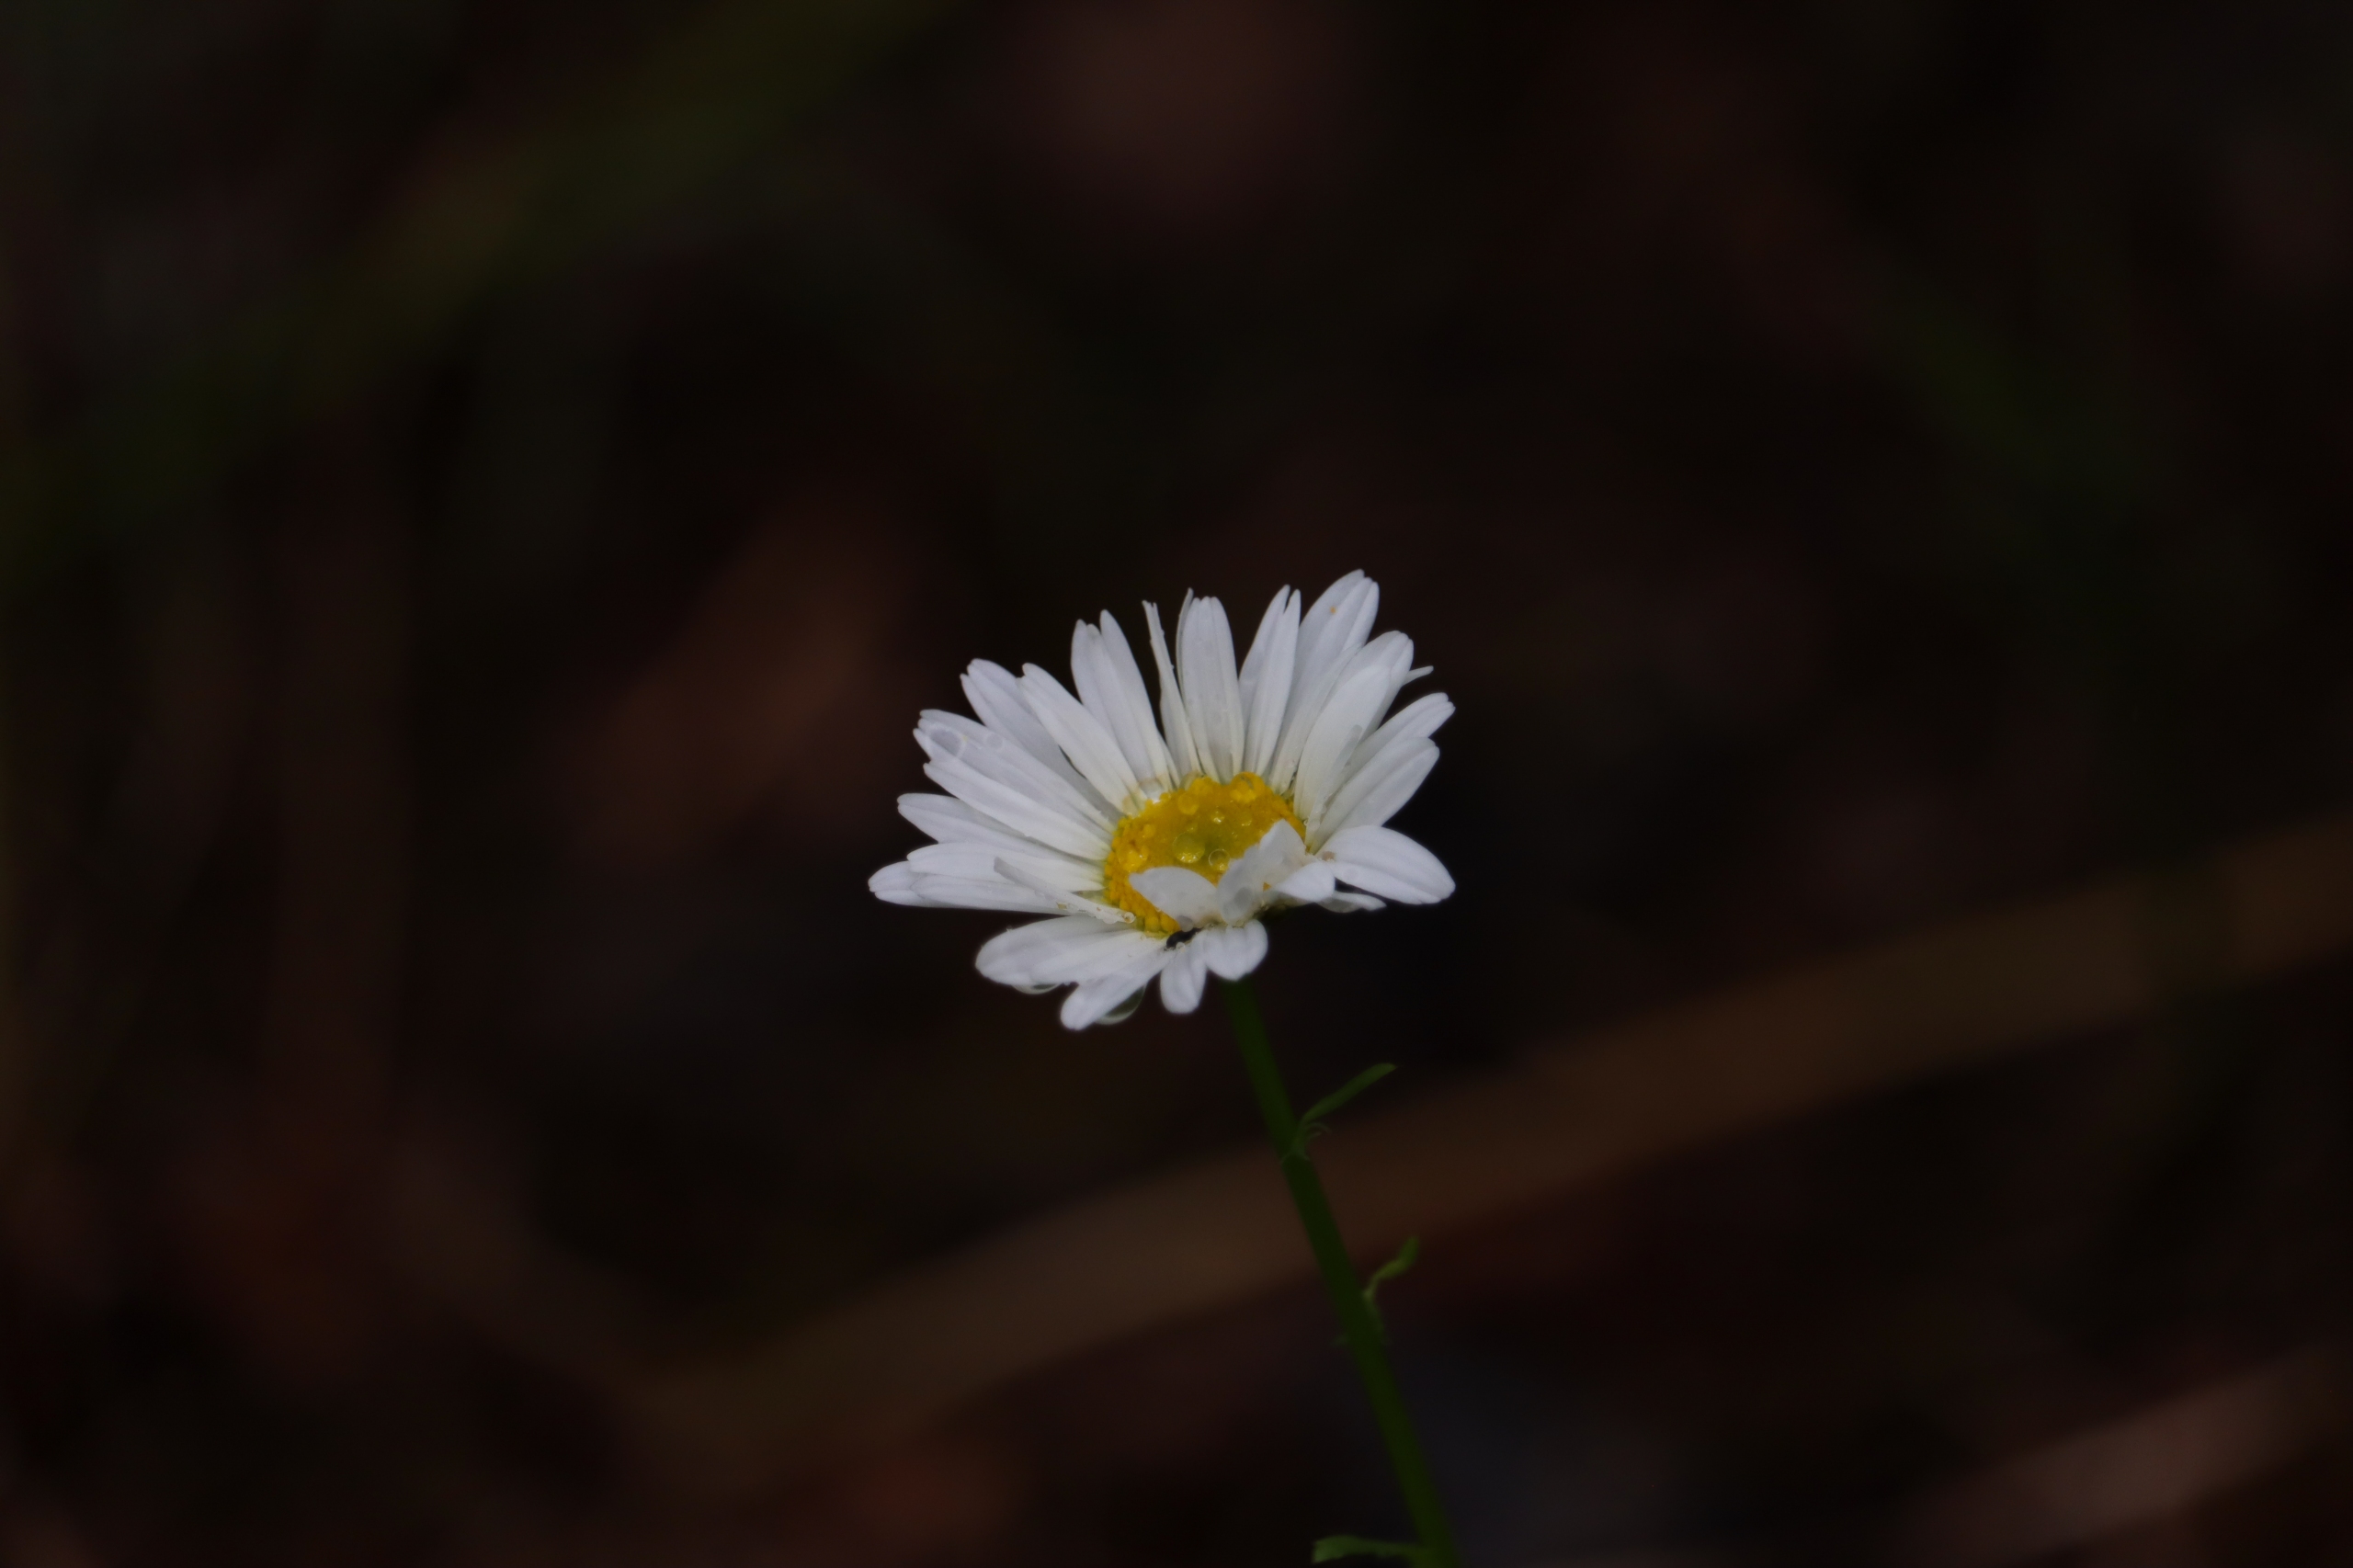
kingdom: Plantae
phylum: Tracheophyta
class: Magnoliopsida
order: Asterales
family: Asteraceae
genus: Leucanthemum
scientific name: Leucanthemum vulgare
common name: Hvid okseøje
